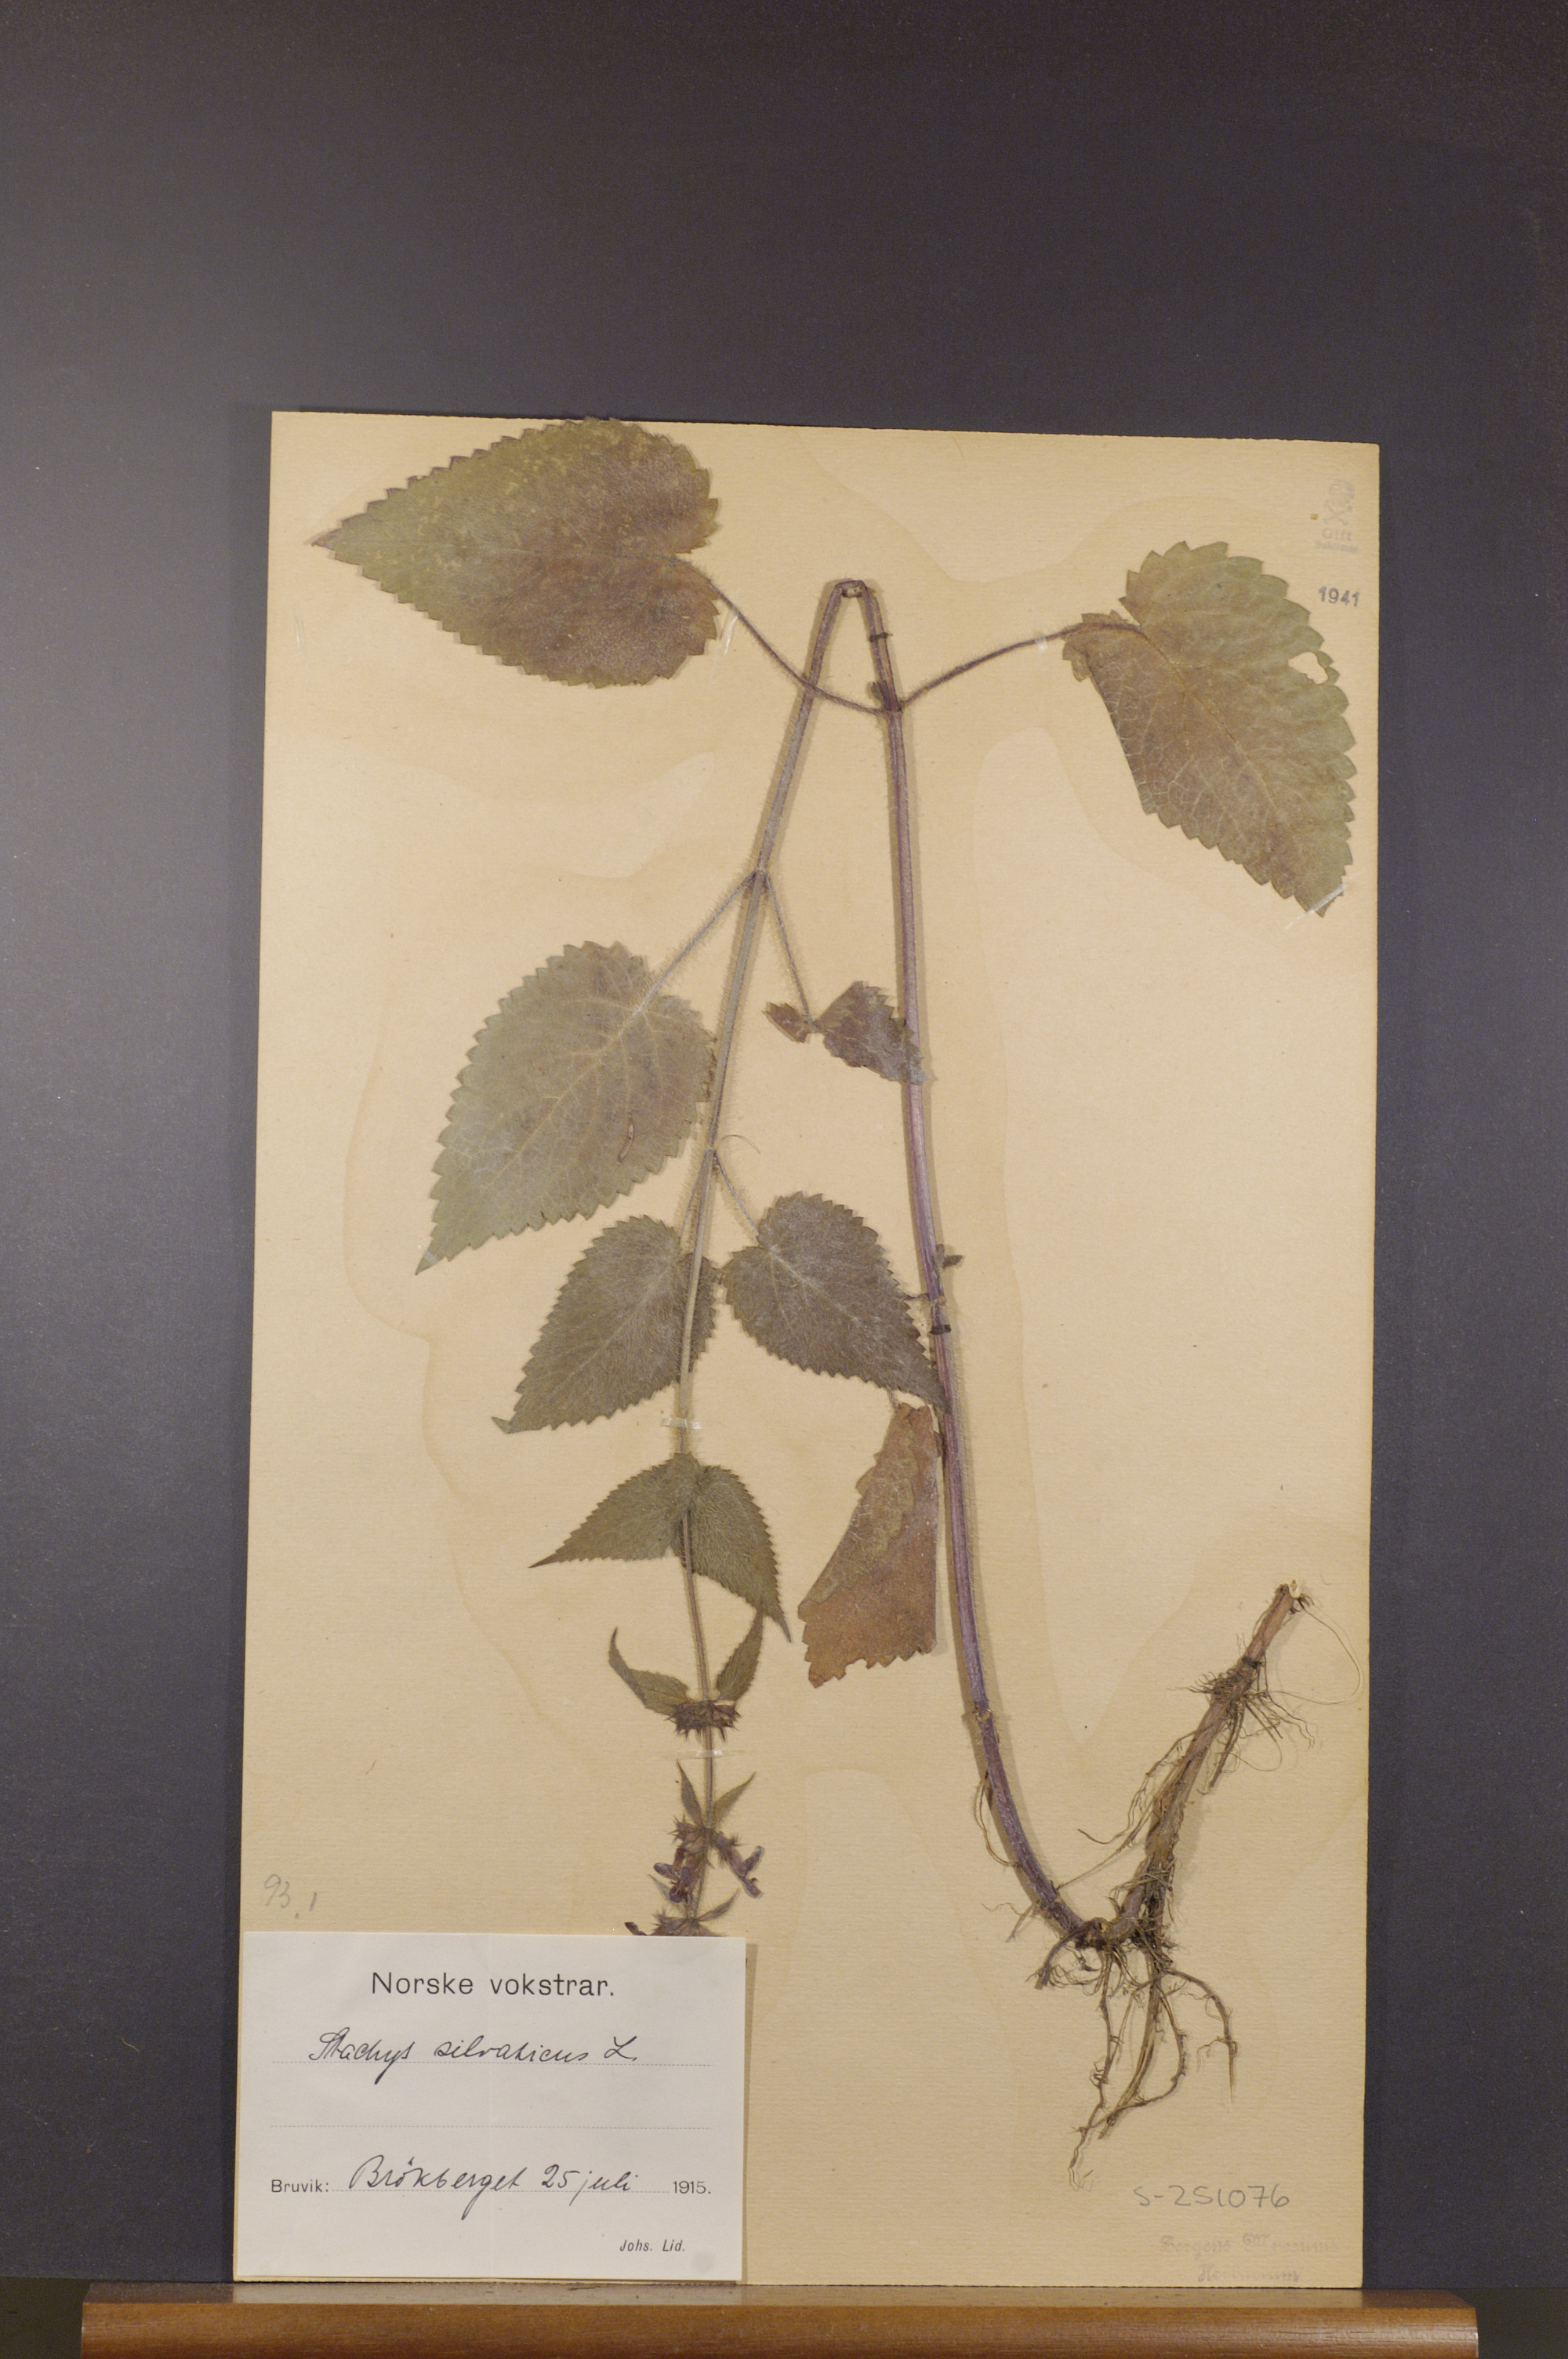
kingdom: Plantae
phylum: Tracheophyta
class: Magnoliopsida
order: Lamiales
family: Lamiaceae
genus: Stachys
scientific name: Stachys sylvatica
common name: Hedge woundwort
